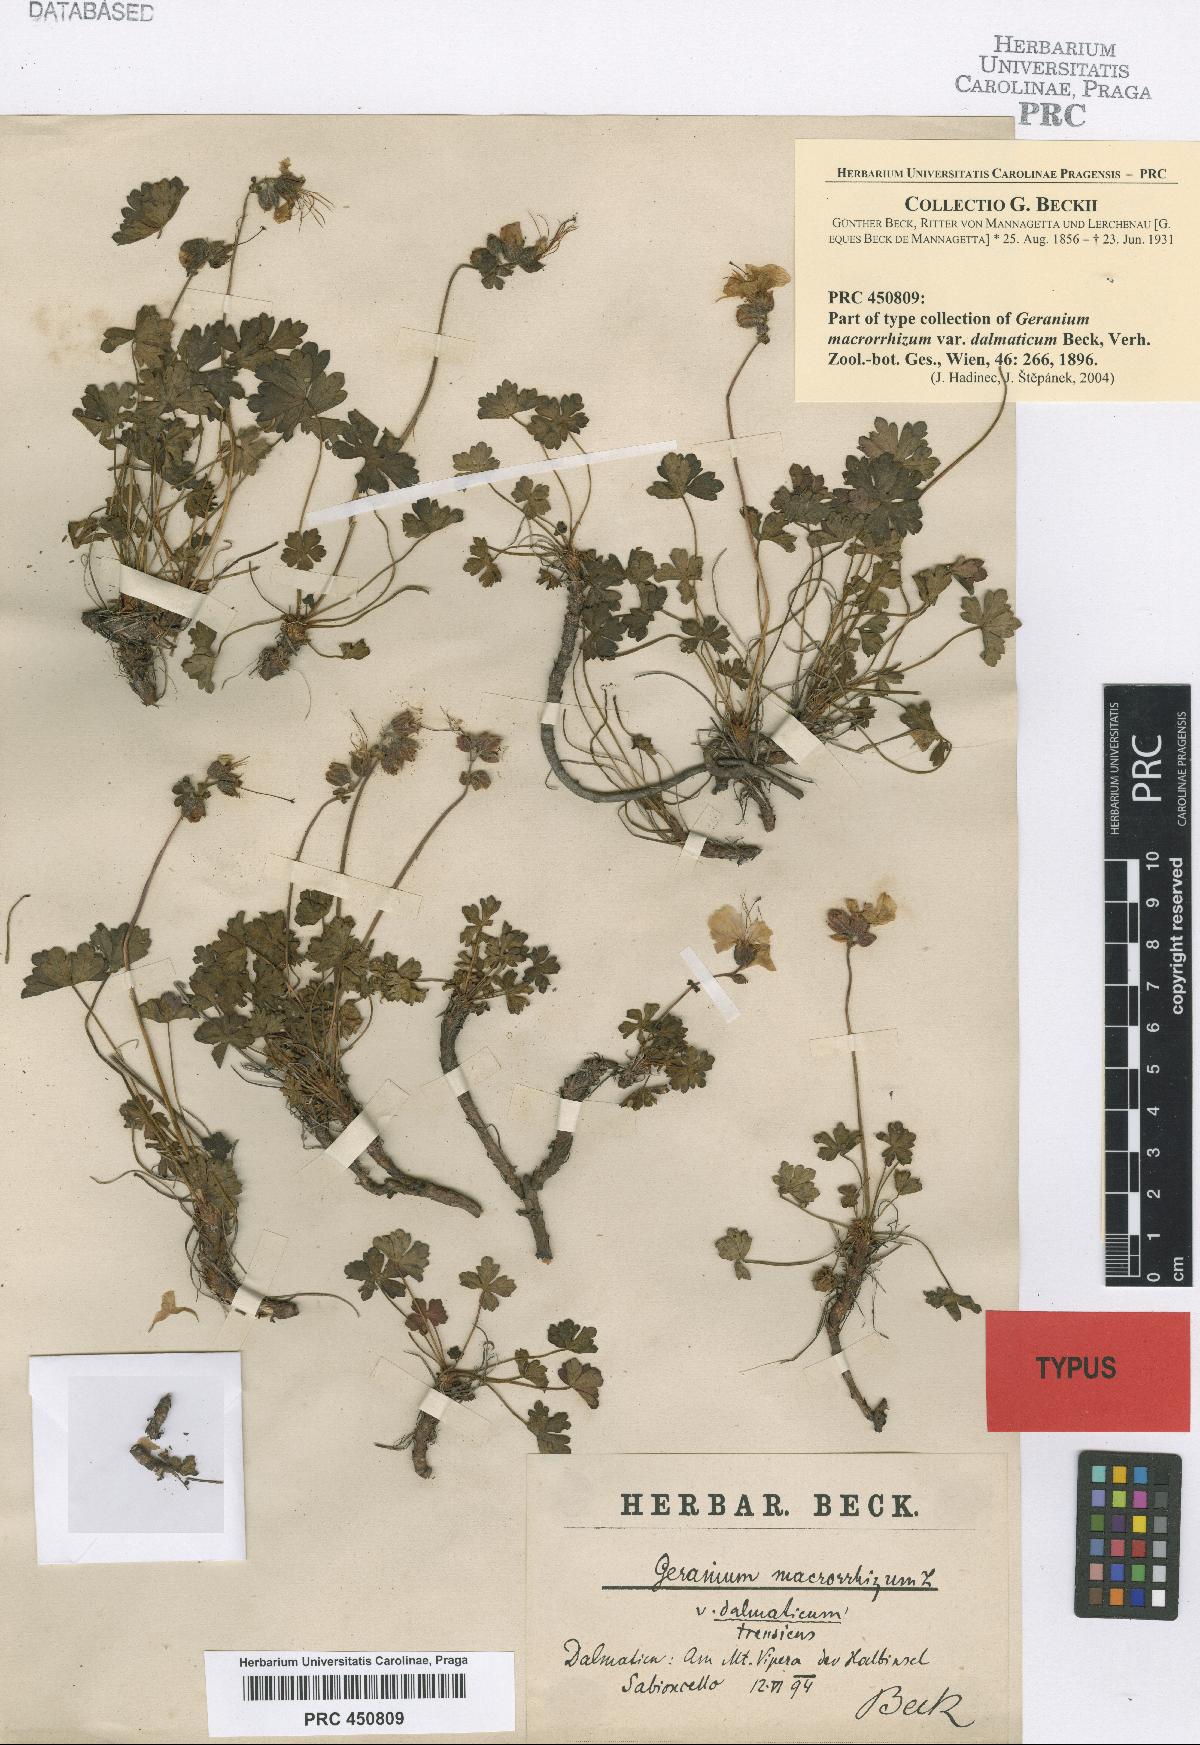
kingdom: Plantae
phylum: Tracheophyta
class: Magnoliopsida
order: Geraniales
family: Geraniaceae
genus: Geranium
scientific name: Geranium macrorrhizum
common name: Rock crane's-bill
